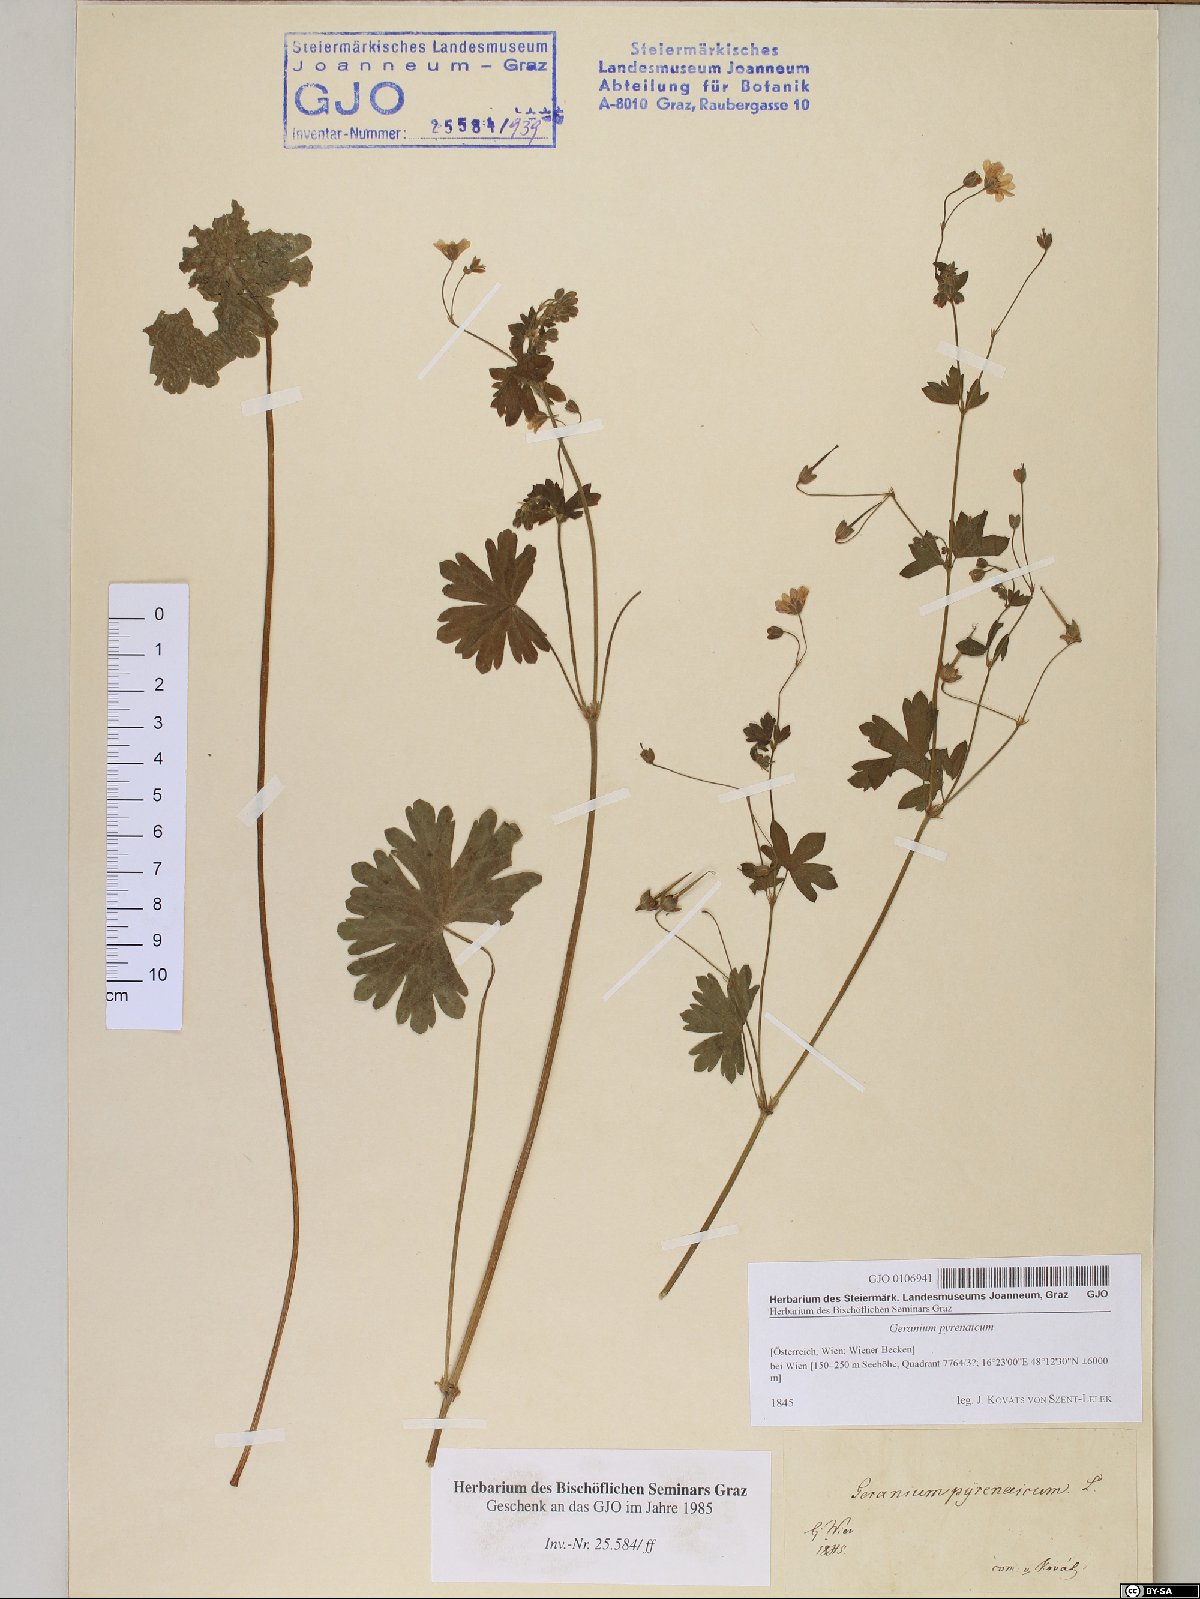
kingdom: Plantae
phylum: Tracheophyta
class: Magnoliopsida
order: Geraniales
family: Geraniaceae
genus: Geranium
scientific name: Geranium pyrenaicum
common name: Hedgerow crane's-bill
